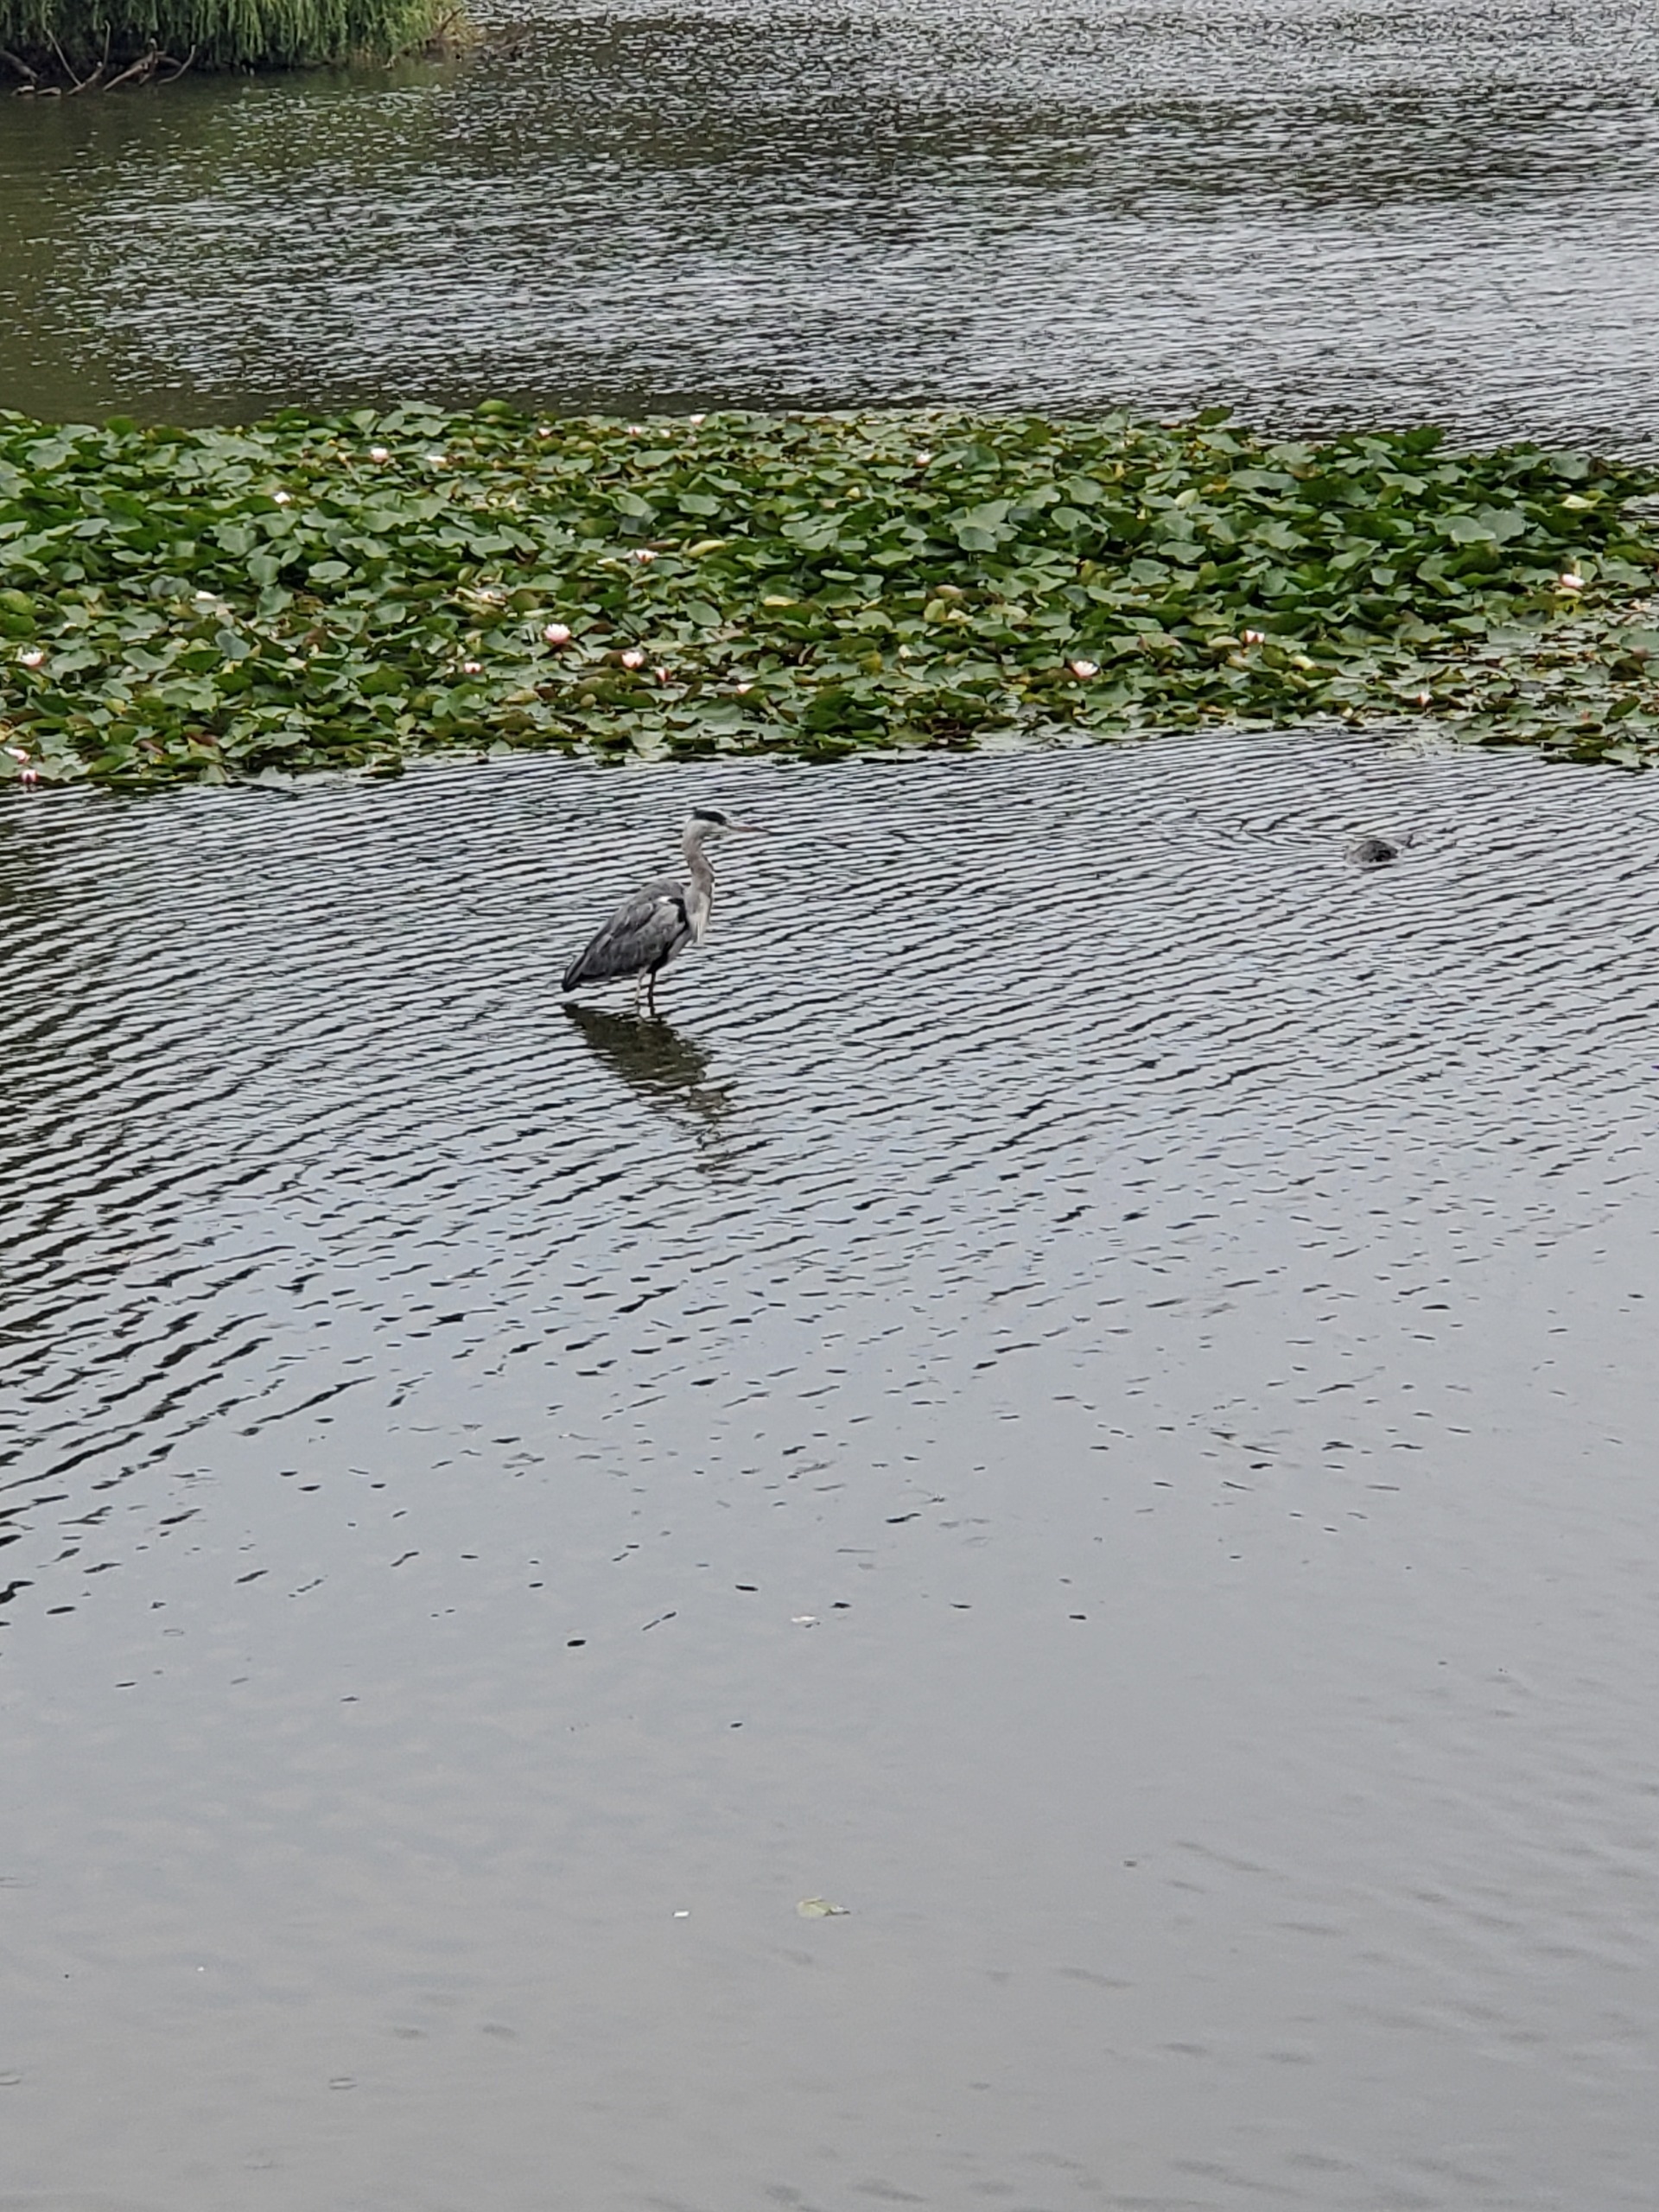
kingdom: Animalia
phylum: Chordata
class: Aves
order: Pelecaniformes
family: Ardeidae
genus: Ardea
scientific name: Ardea cinerea
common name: Fiskehejre
